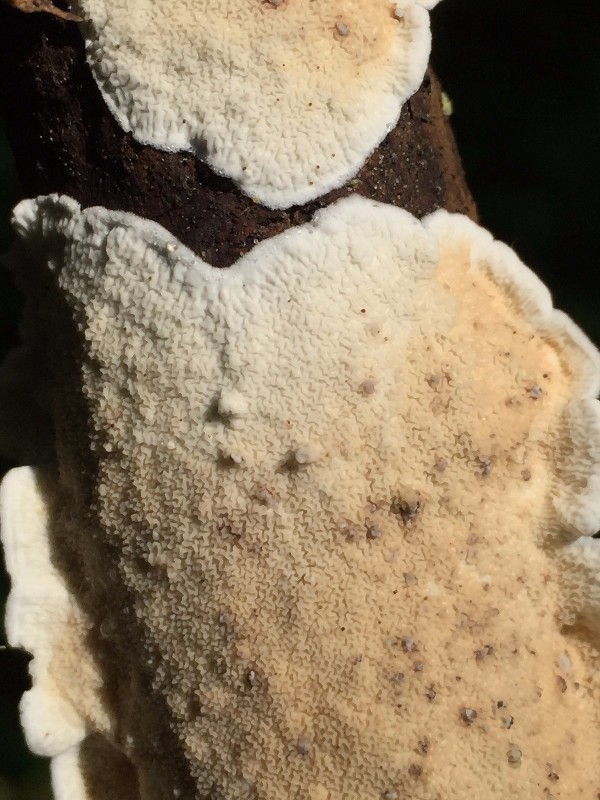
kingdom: Fungi
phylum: Basidiomycota
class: Agaricomycetes
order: Polyporales
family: Irpicaceae
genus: Byssomerulius
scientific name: Byssomerulius corium
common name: læder-åresvamp
